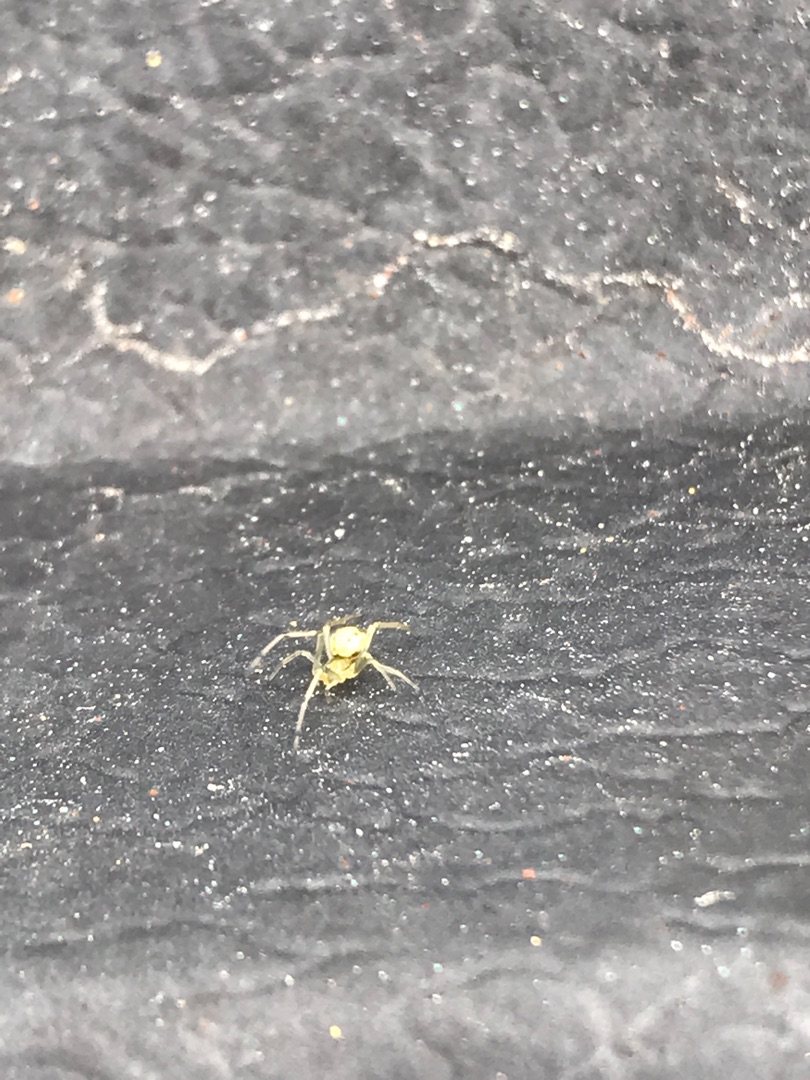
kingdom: Animalia
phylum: Arthropoda
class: Arachnida
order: Araneae
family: Theridiidae
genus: Enoplognatha
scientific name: Enoplognatha
